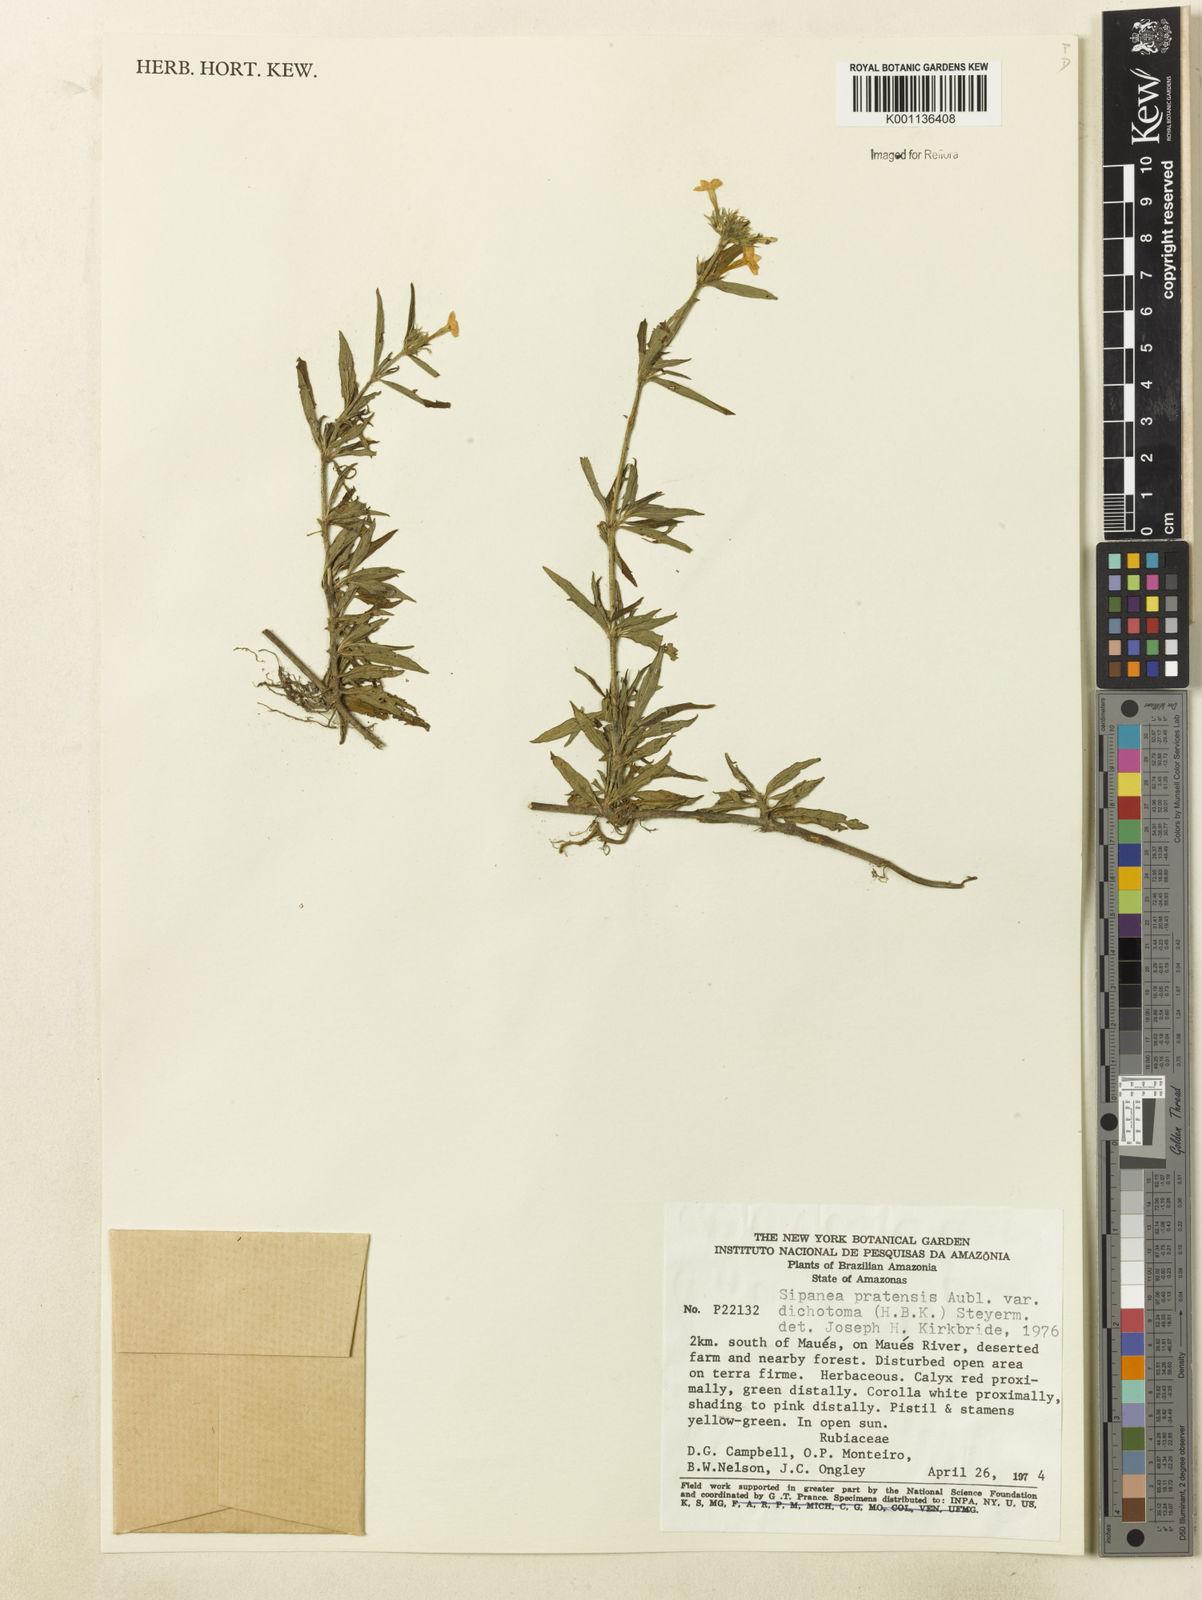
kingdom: Plantae
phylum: Tracheophyta
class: Magnoliopsida
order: Gentianales
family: Rubiaceae
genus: Sipanea
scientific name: Sipanea pratensis
